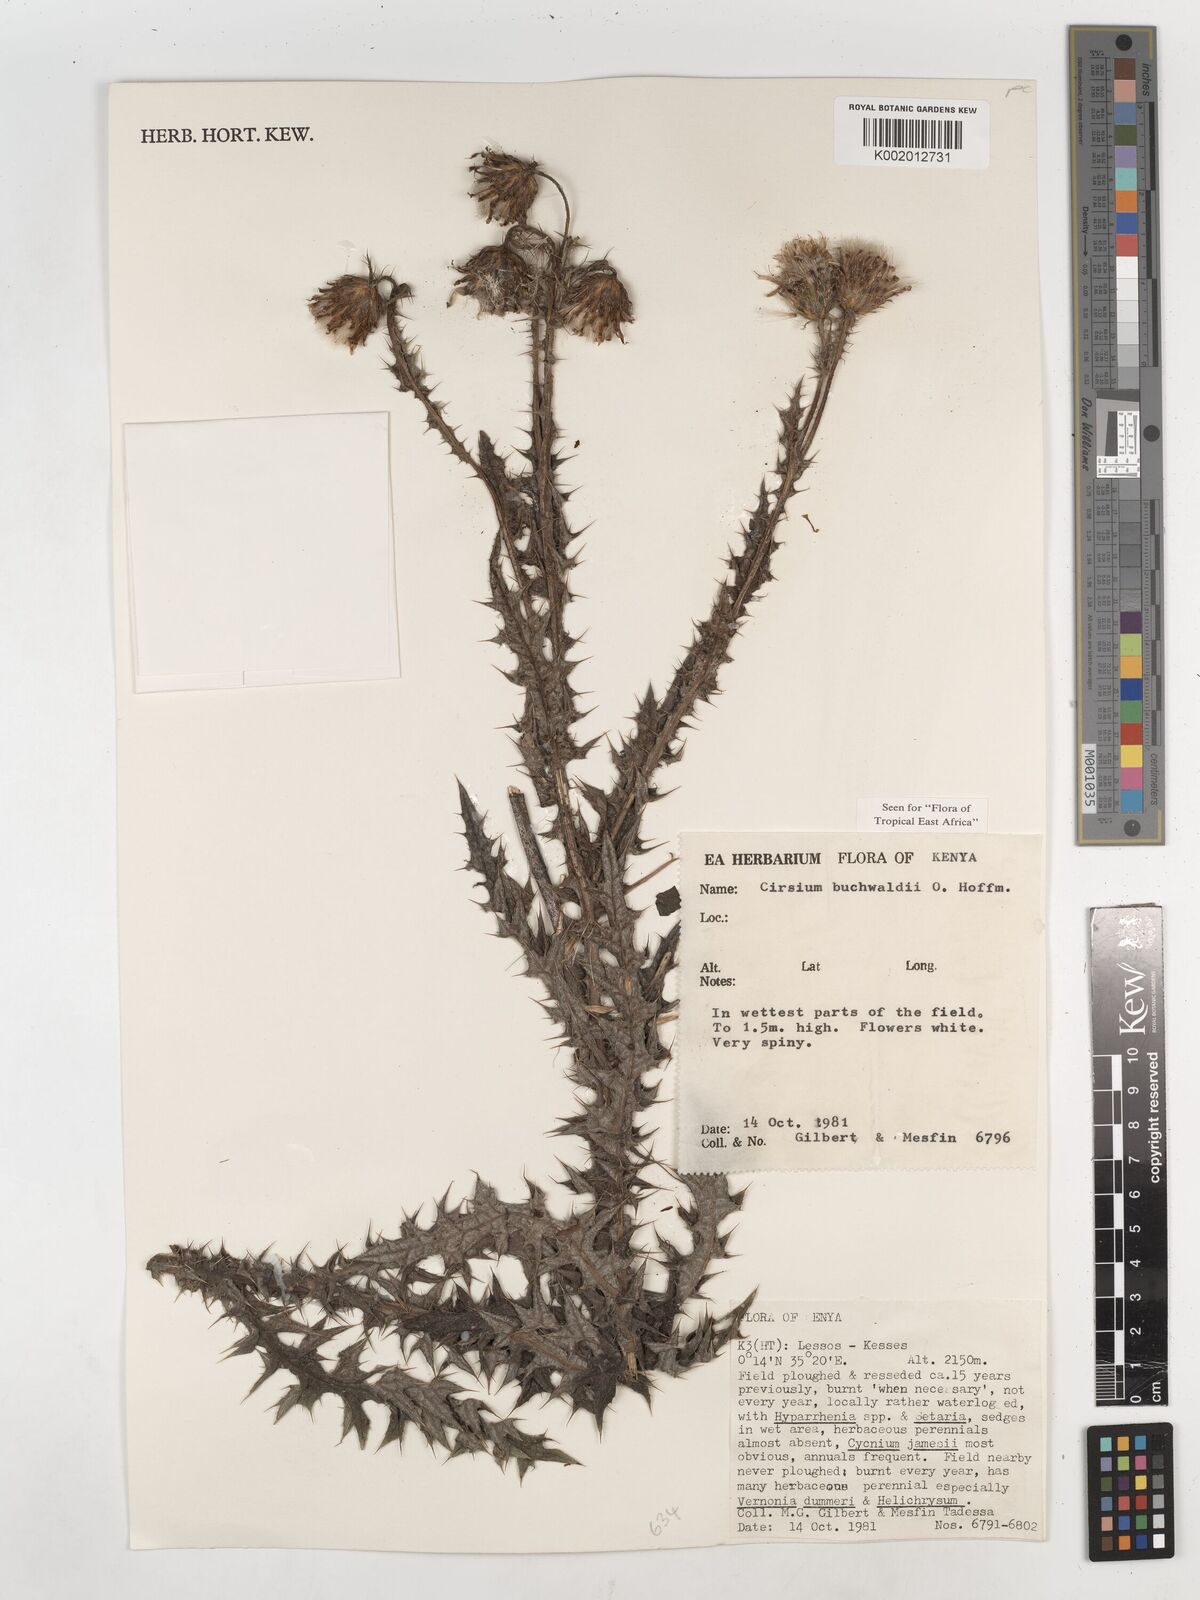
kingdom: Plantae
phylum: Tracheophyta
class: Magnoliopsida
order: Asterales
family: Asteraceae
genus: Cirsium
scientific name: Cirsium buchwaldii
